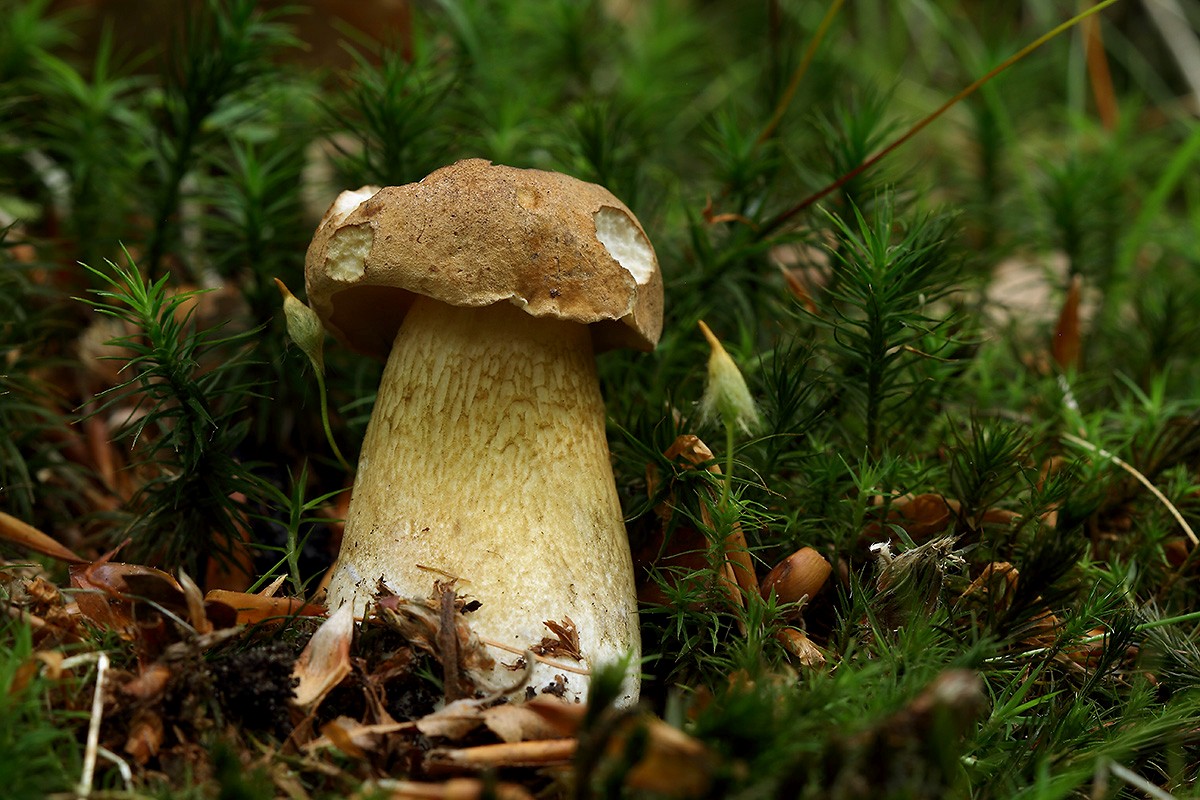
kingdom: Fungi
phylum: Basidiomycota
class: Agaricomycetes
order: Boletales
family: Boletaceae
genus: Tylopilus
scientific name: Tylopilus felleus
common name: galderørhat
